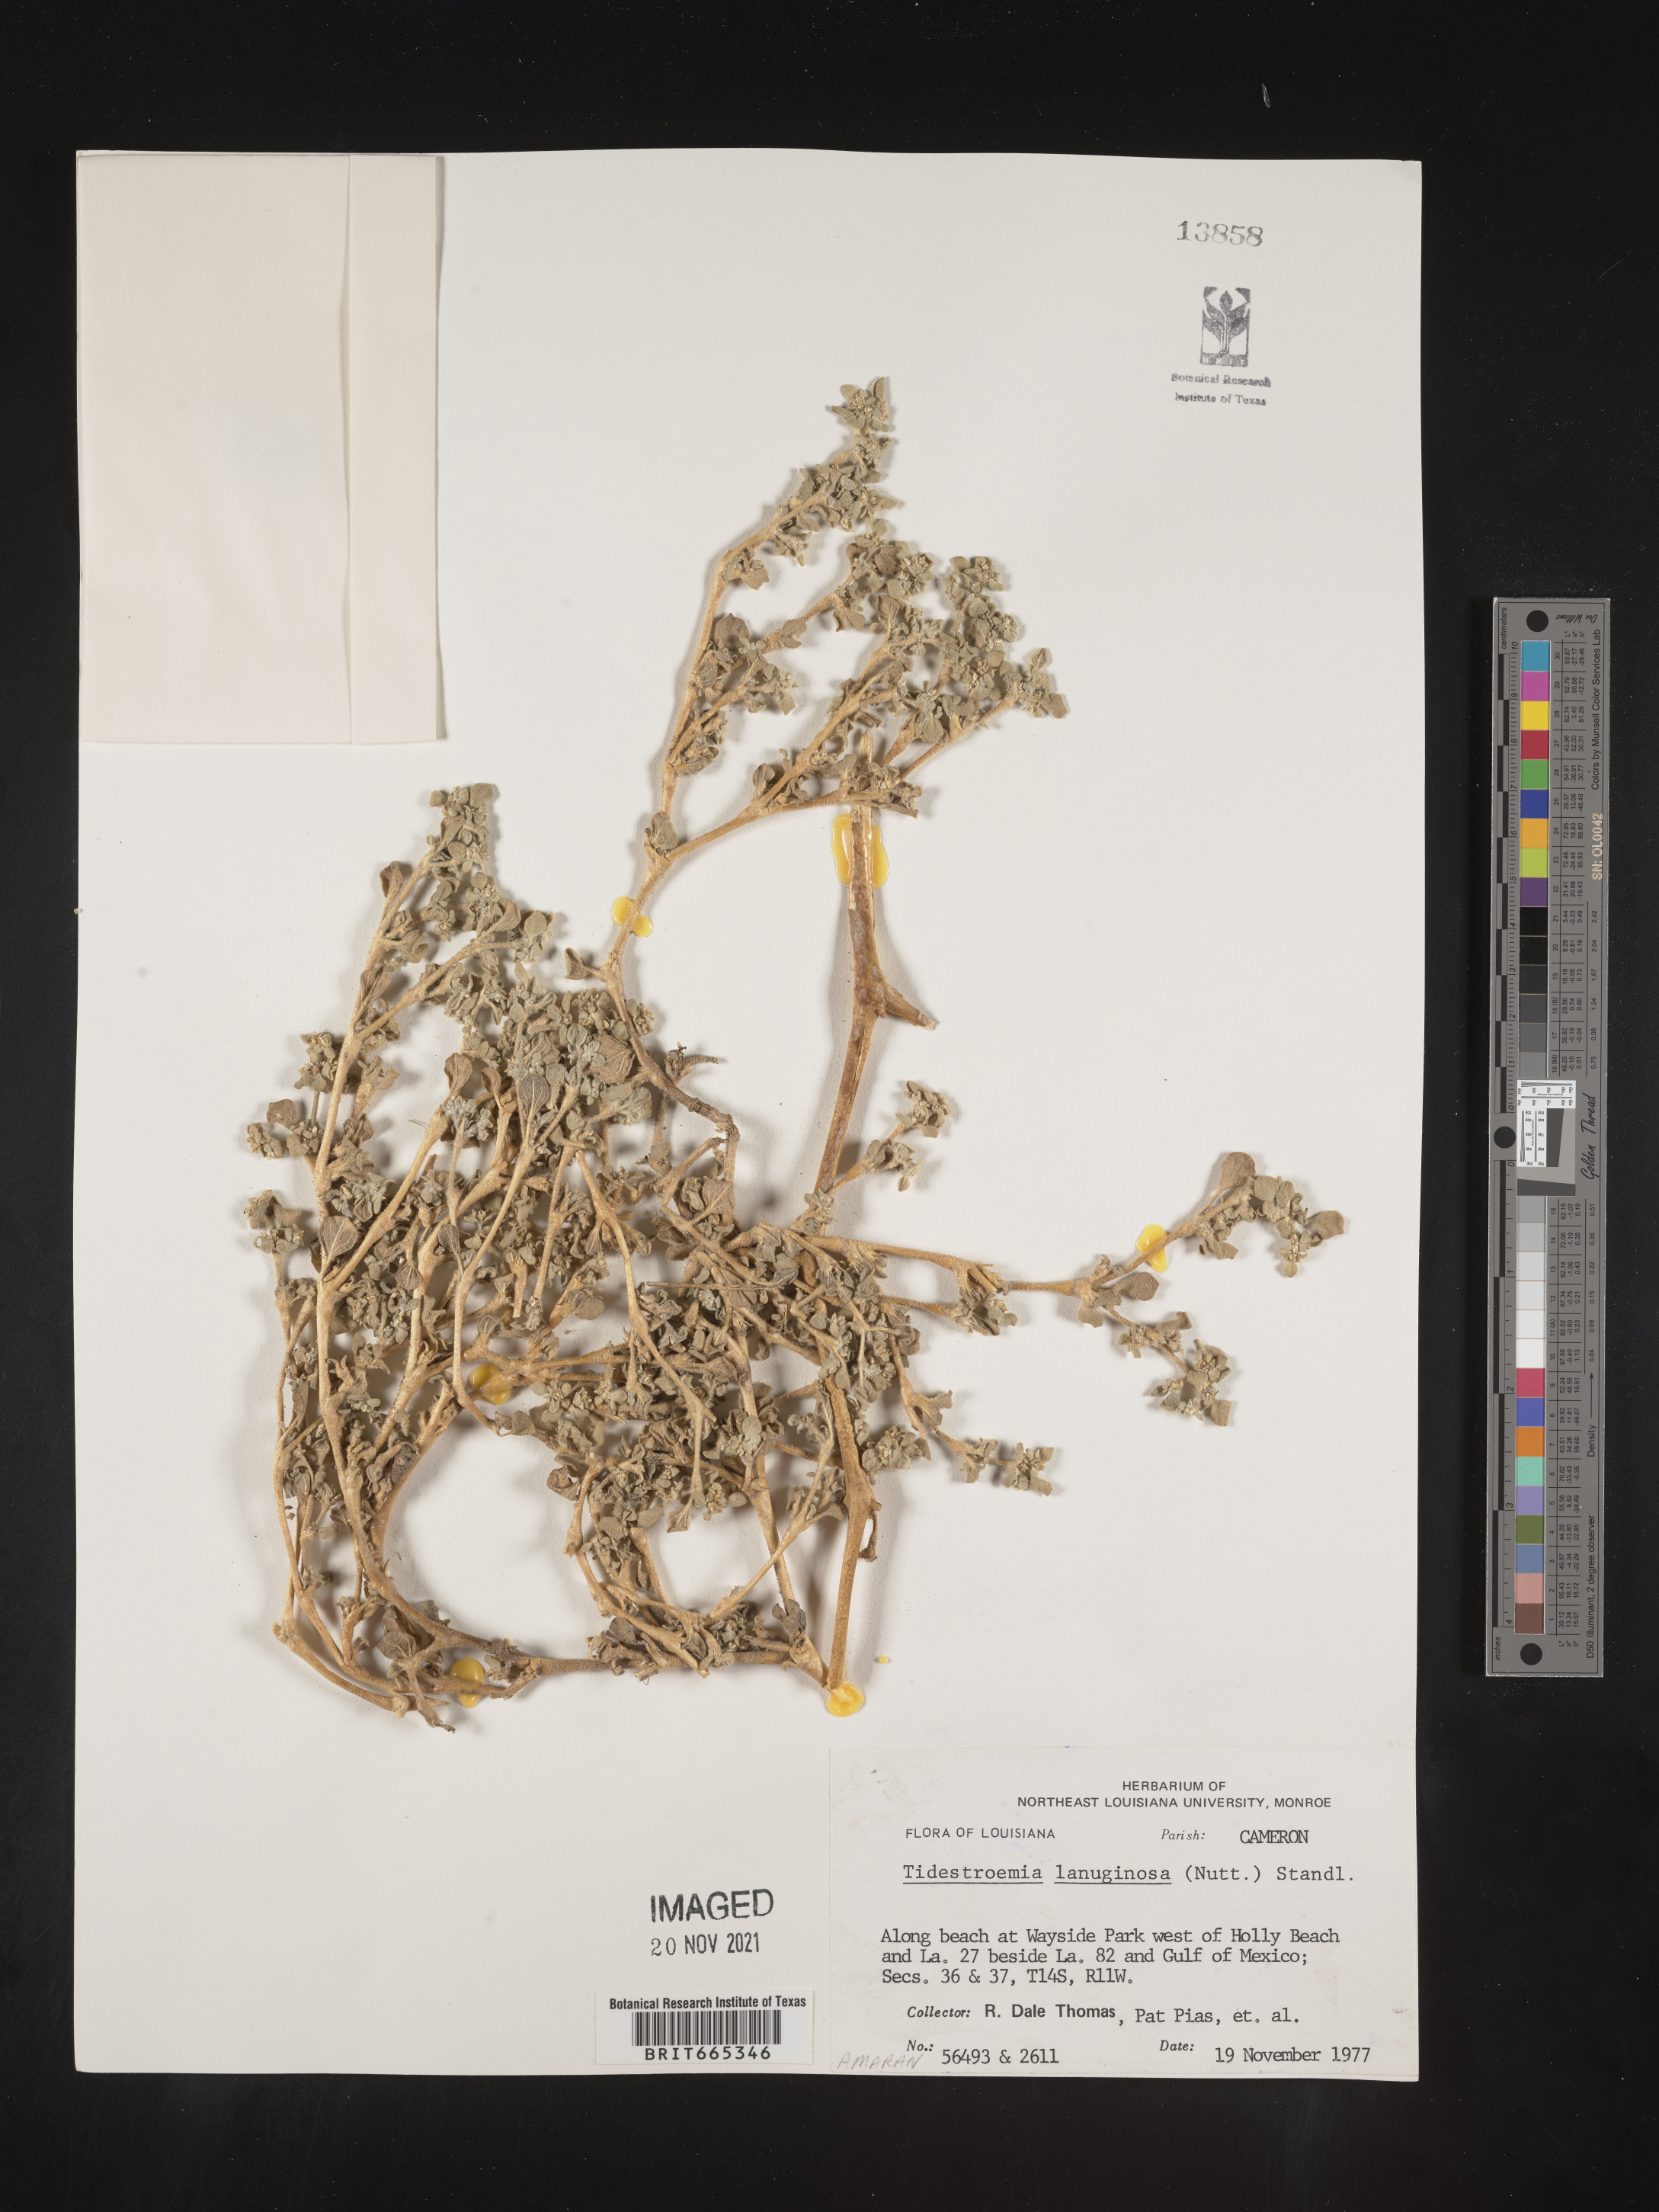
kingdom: Plantae
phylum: Tracheophyta
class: Magnoliopsida
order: Caryophyllales
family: Amaranthaceae
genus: Tidestromia
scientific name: Tidestromia lanuginosa
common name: Woolly tidestromia
